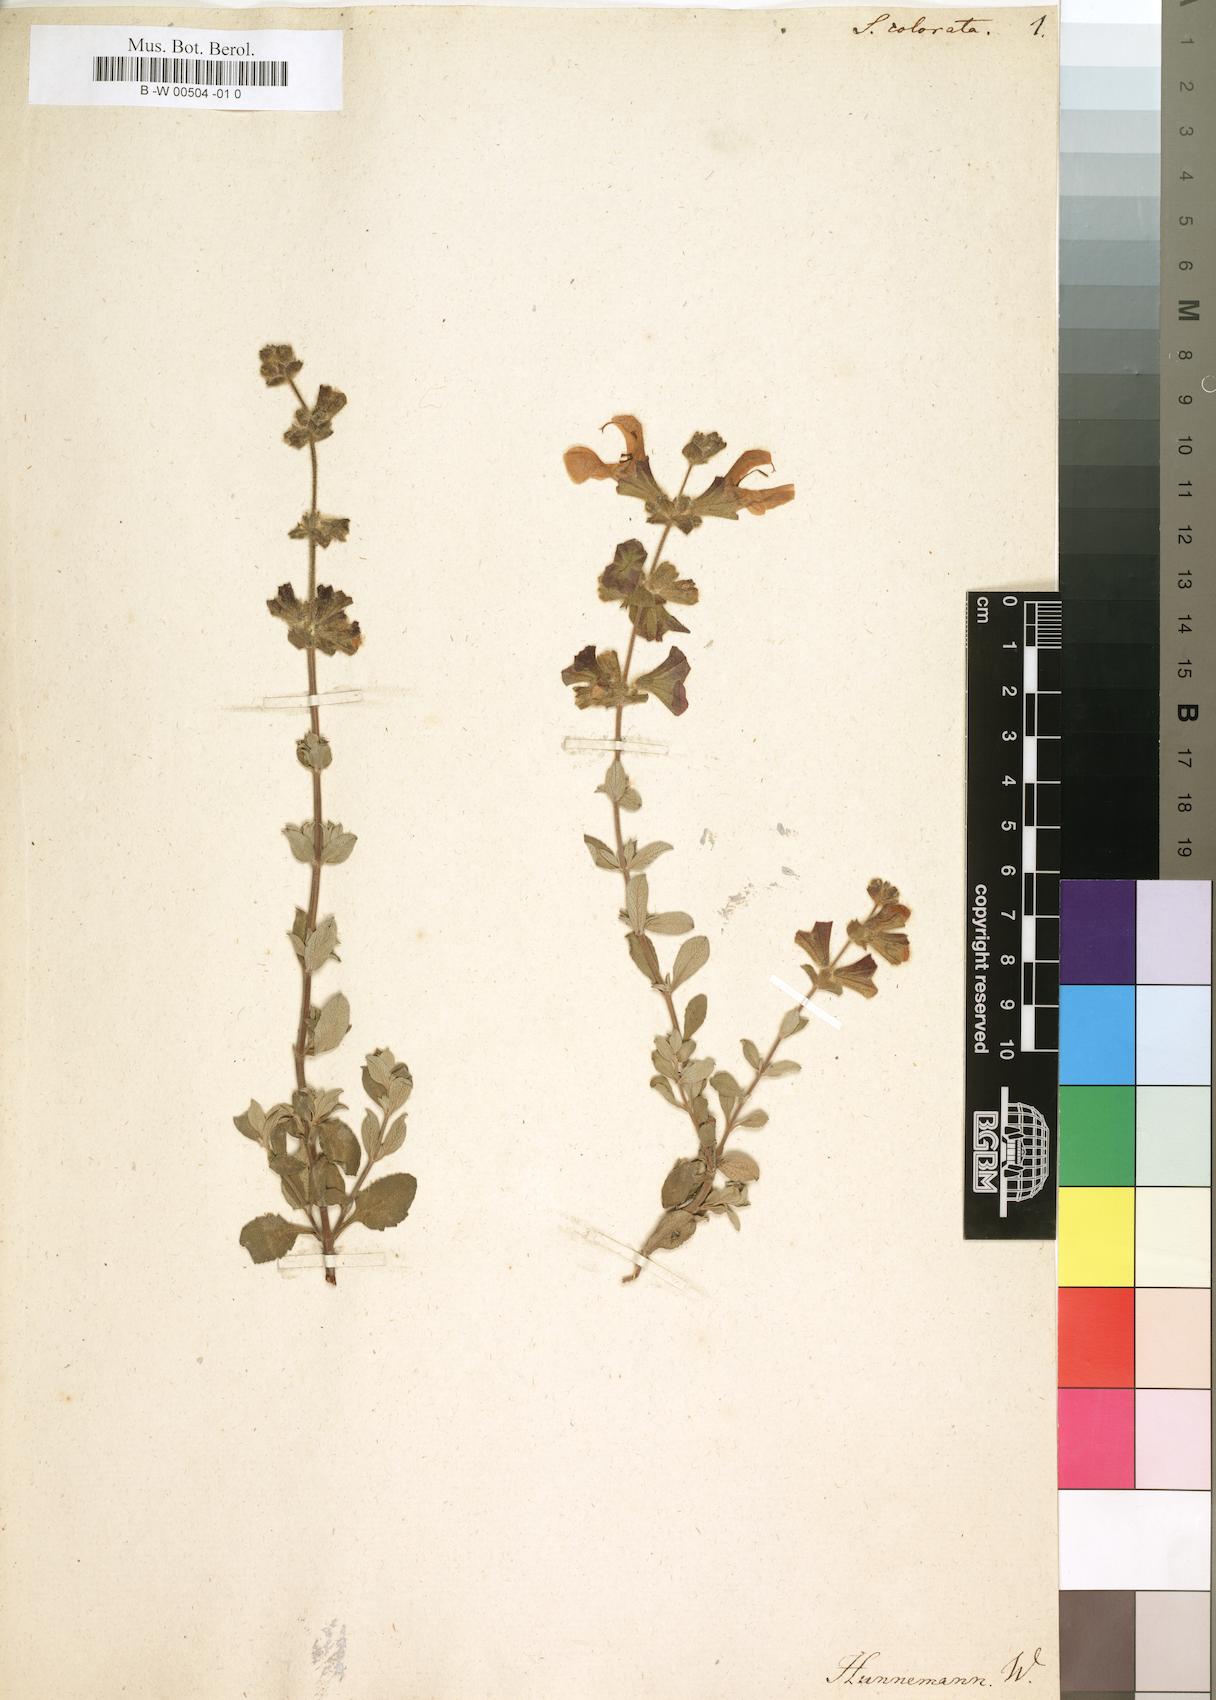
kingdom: Plantae
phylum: Tracheophyta
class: Magnoliopsida
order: Lamiales
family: Lamiaceae
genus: Salvia
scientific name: Salvia
